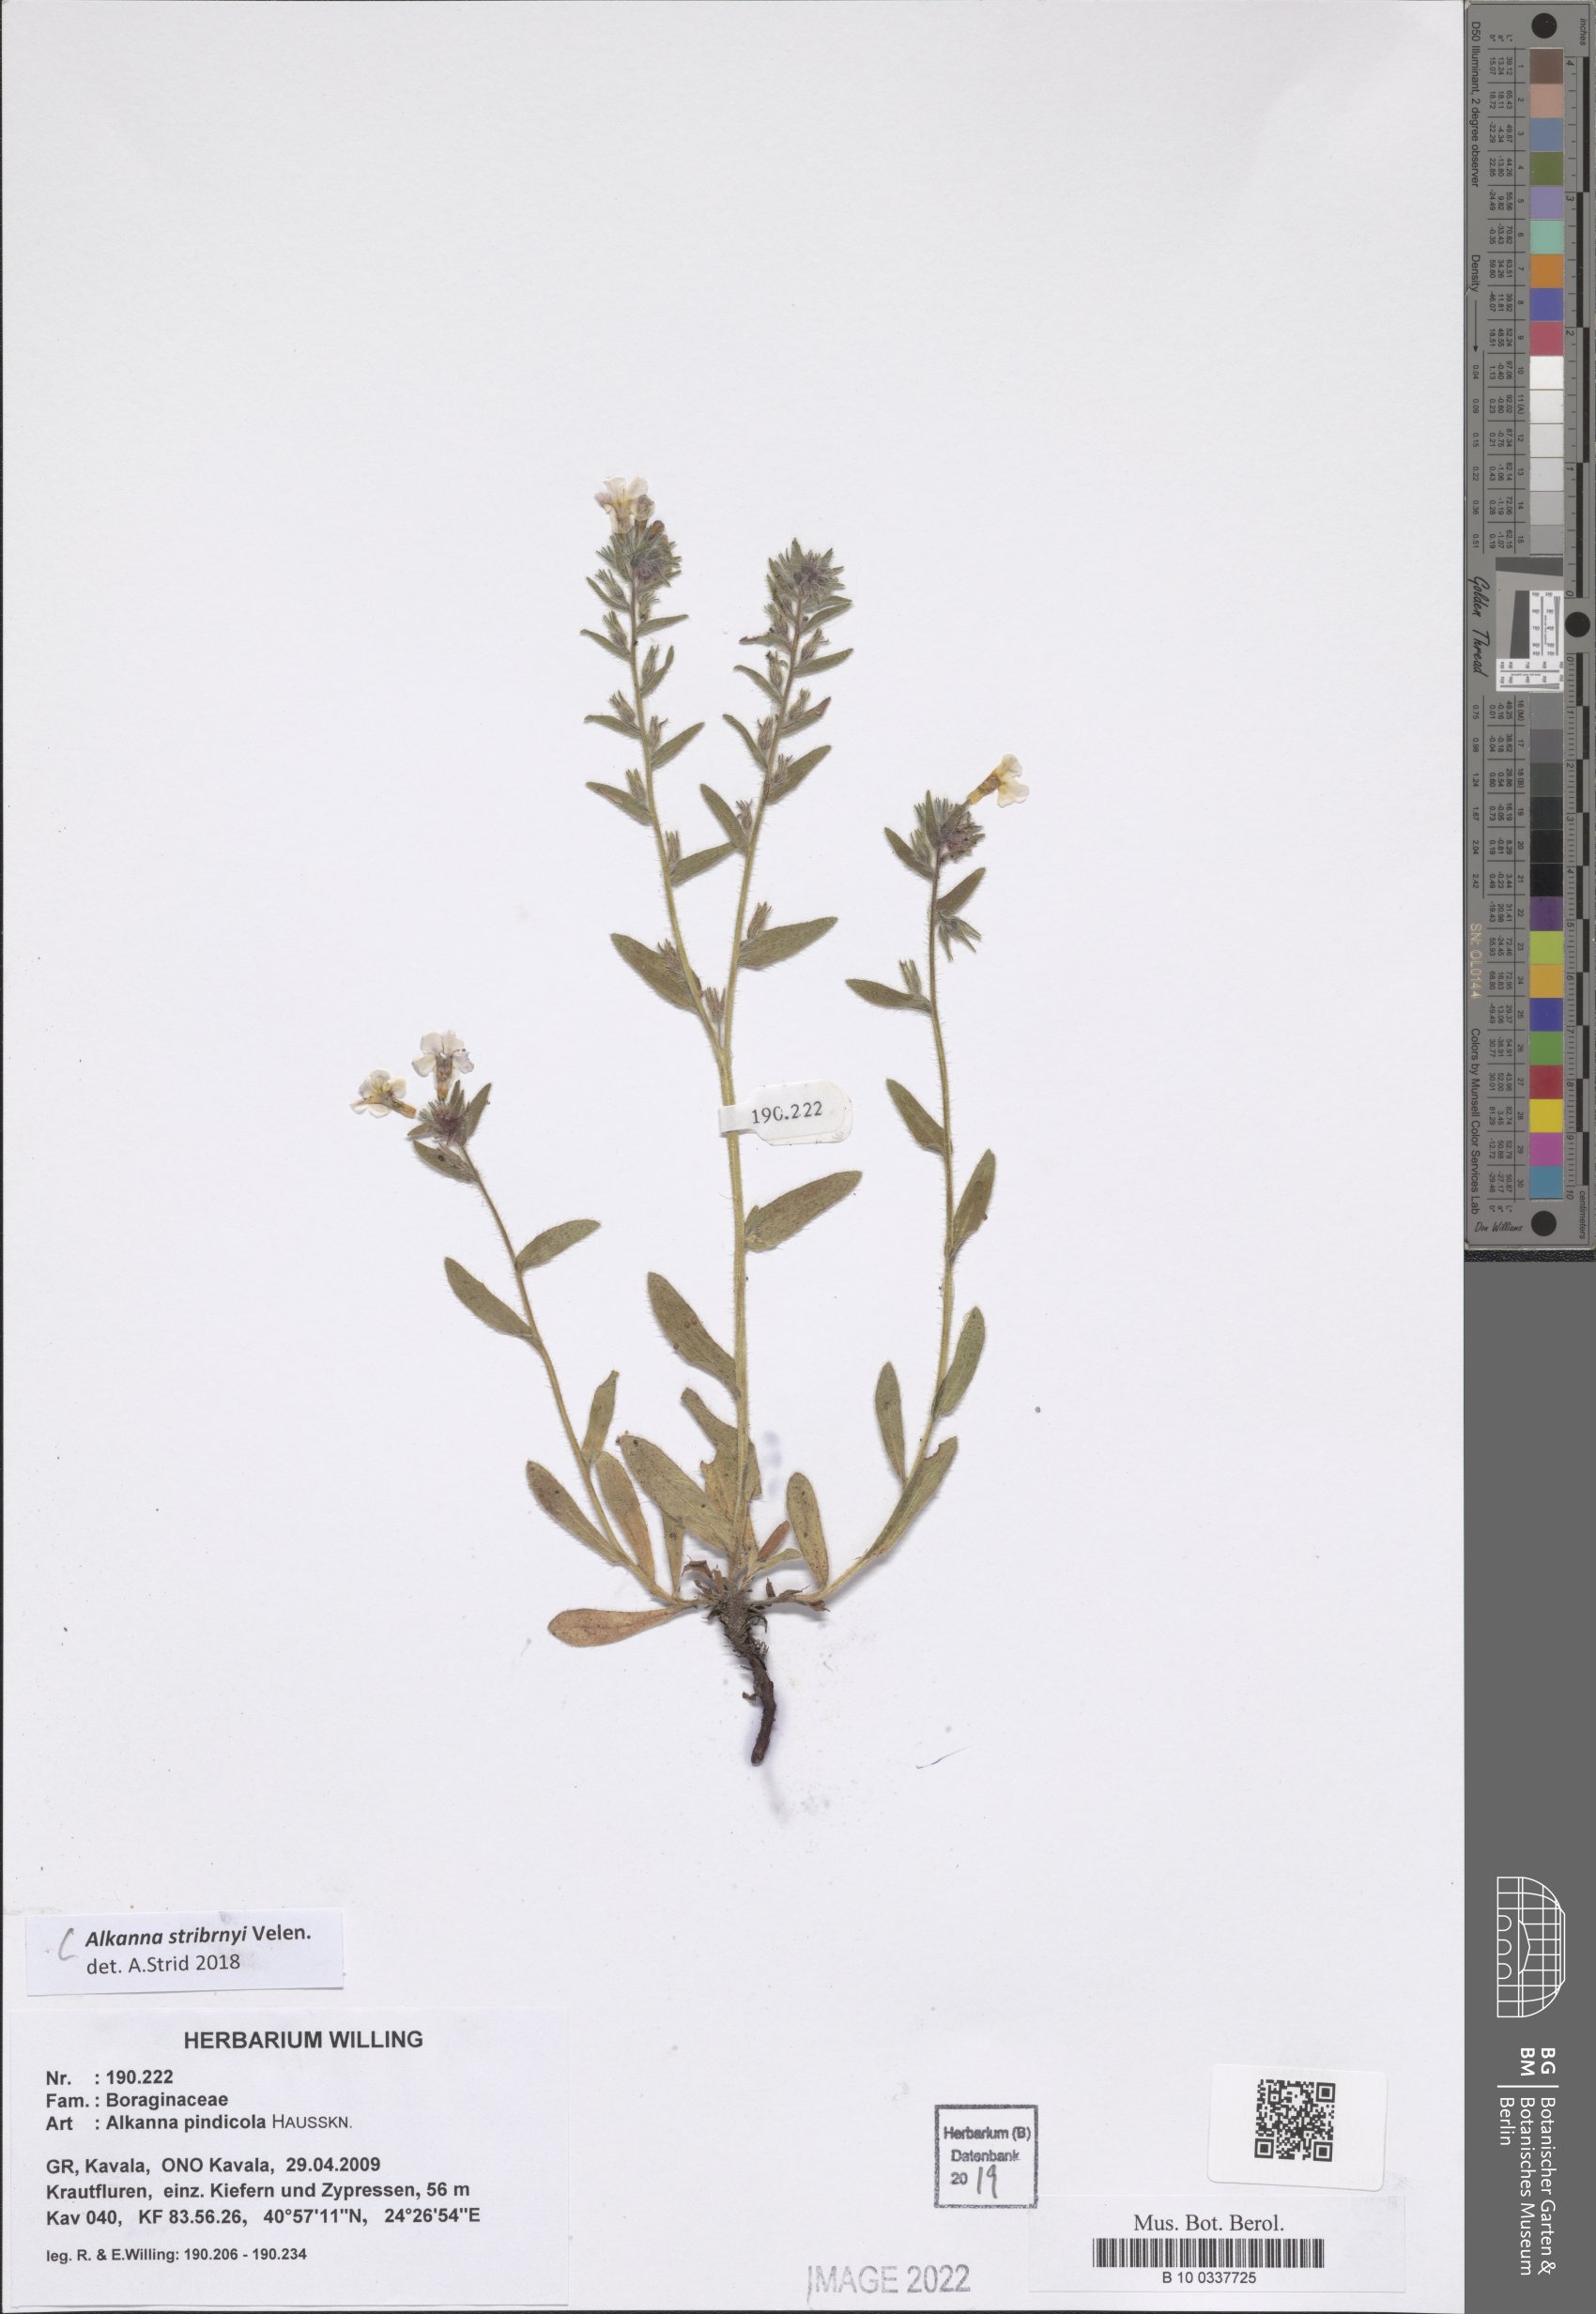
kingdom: Plantae
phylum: Tracheophyta
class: Magnoliopsida
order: Boraginales
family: Boraginaceae
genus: Alkanna
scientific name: Alkanna stribrnyi
